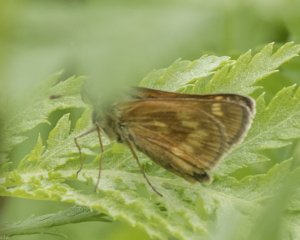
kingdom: Animalia
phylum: Arthropoda
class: Insecta
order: Lepidoptera
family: Hesperiidae
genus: Polites
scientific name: Polites
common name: Long Dash Skipper
